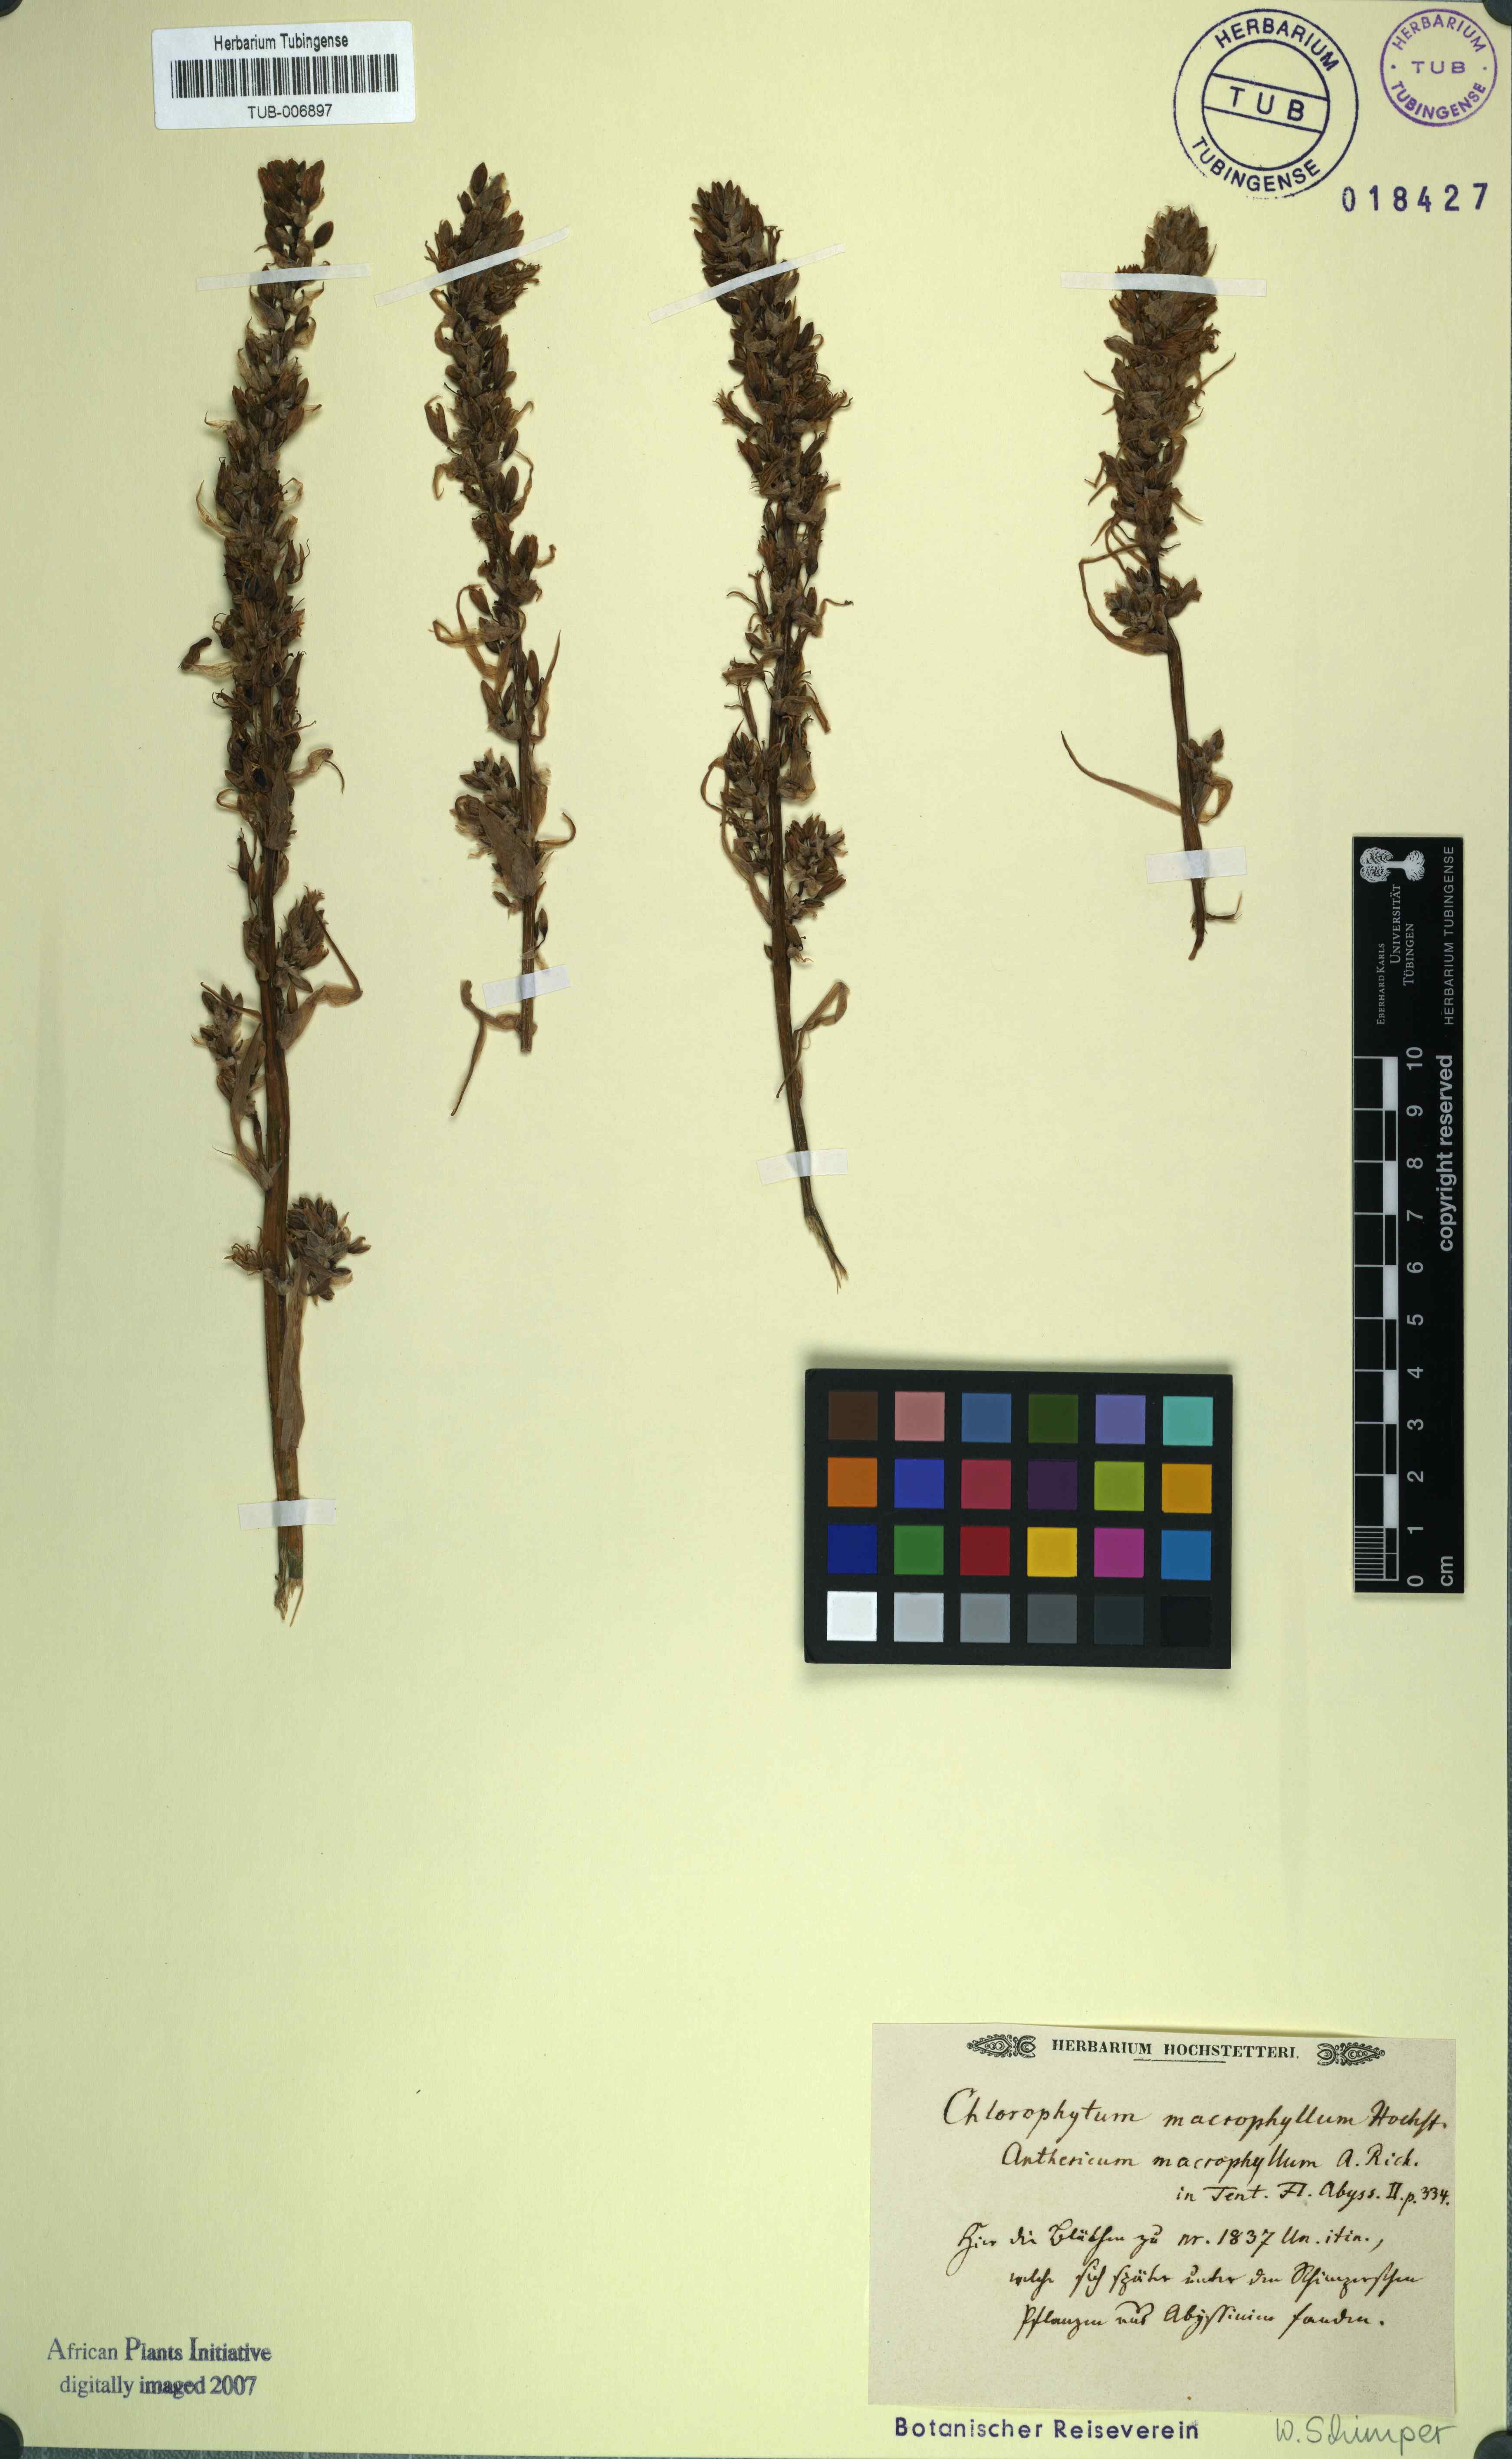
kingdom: Plantae
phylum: Tracheophyta
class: Liliopsida
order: Asparagales
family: Asparagaceae
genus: Chlorophytum
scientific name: Chlorophytum macrophyllum
